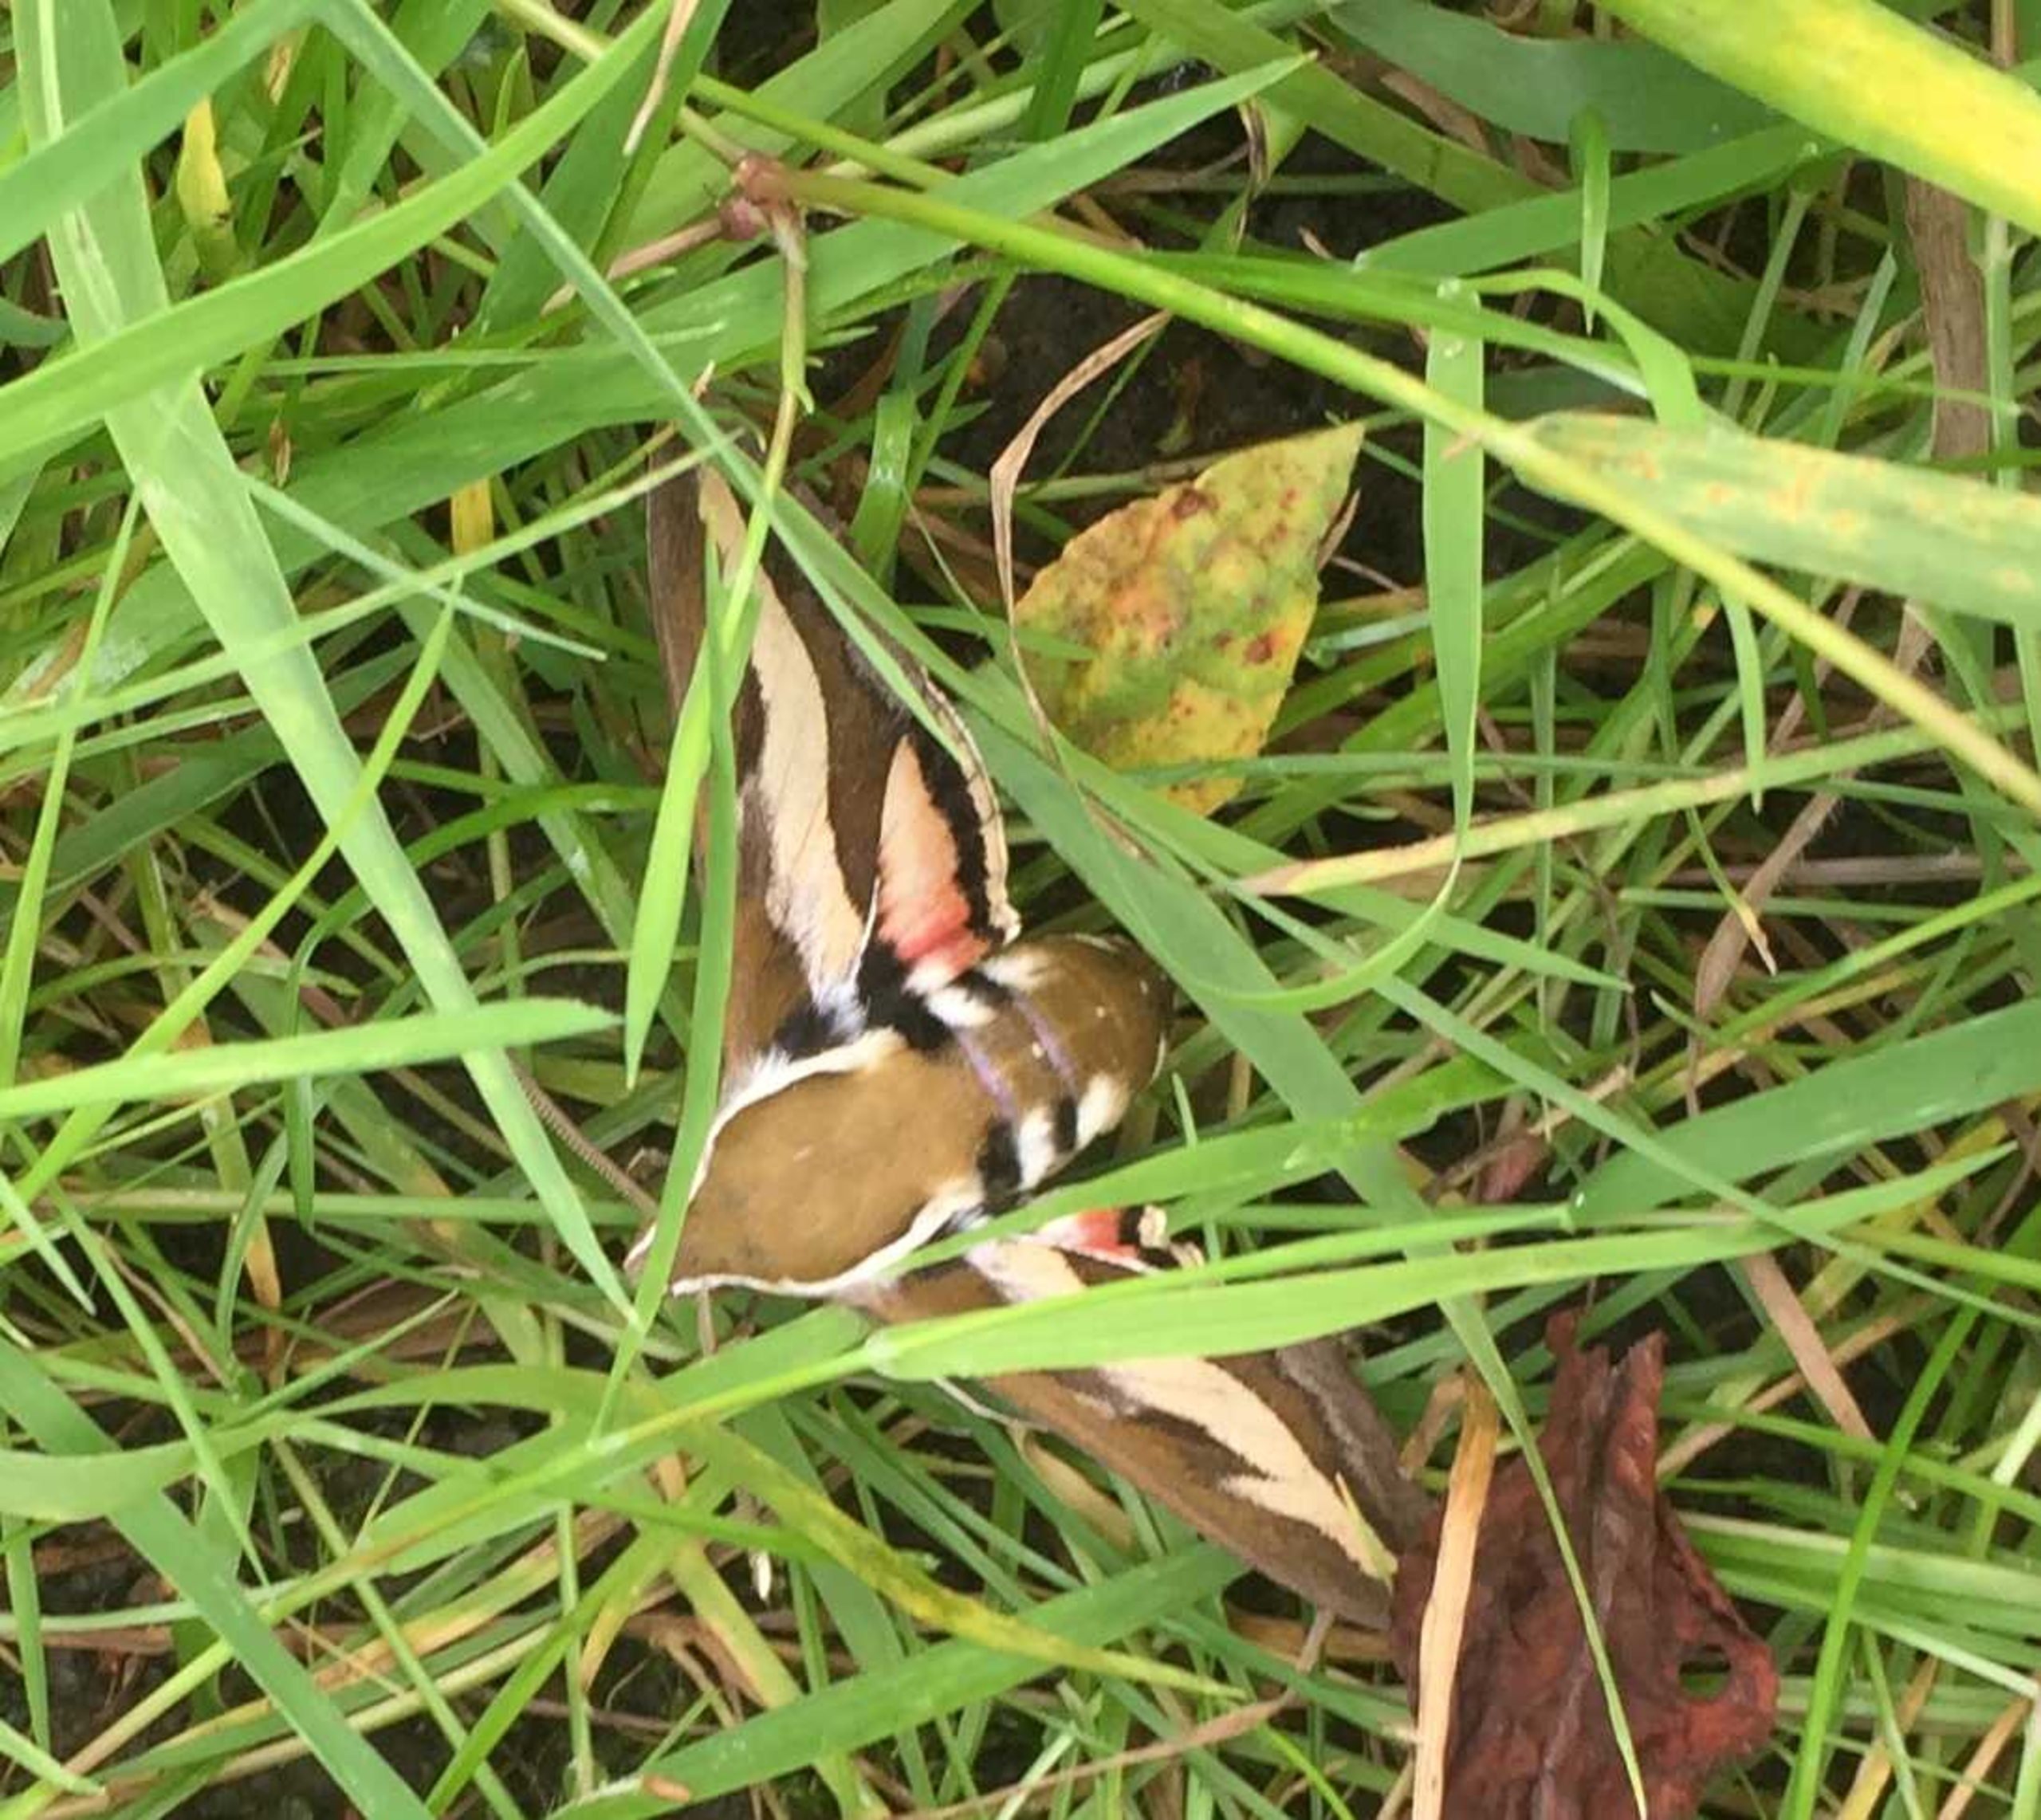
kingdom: Animalia
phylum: Arthropoda
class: Insecta
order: Lepidoptera
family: Sphingidae
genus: Hyles
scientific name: Hyles gallii
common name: Snerresværmer
